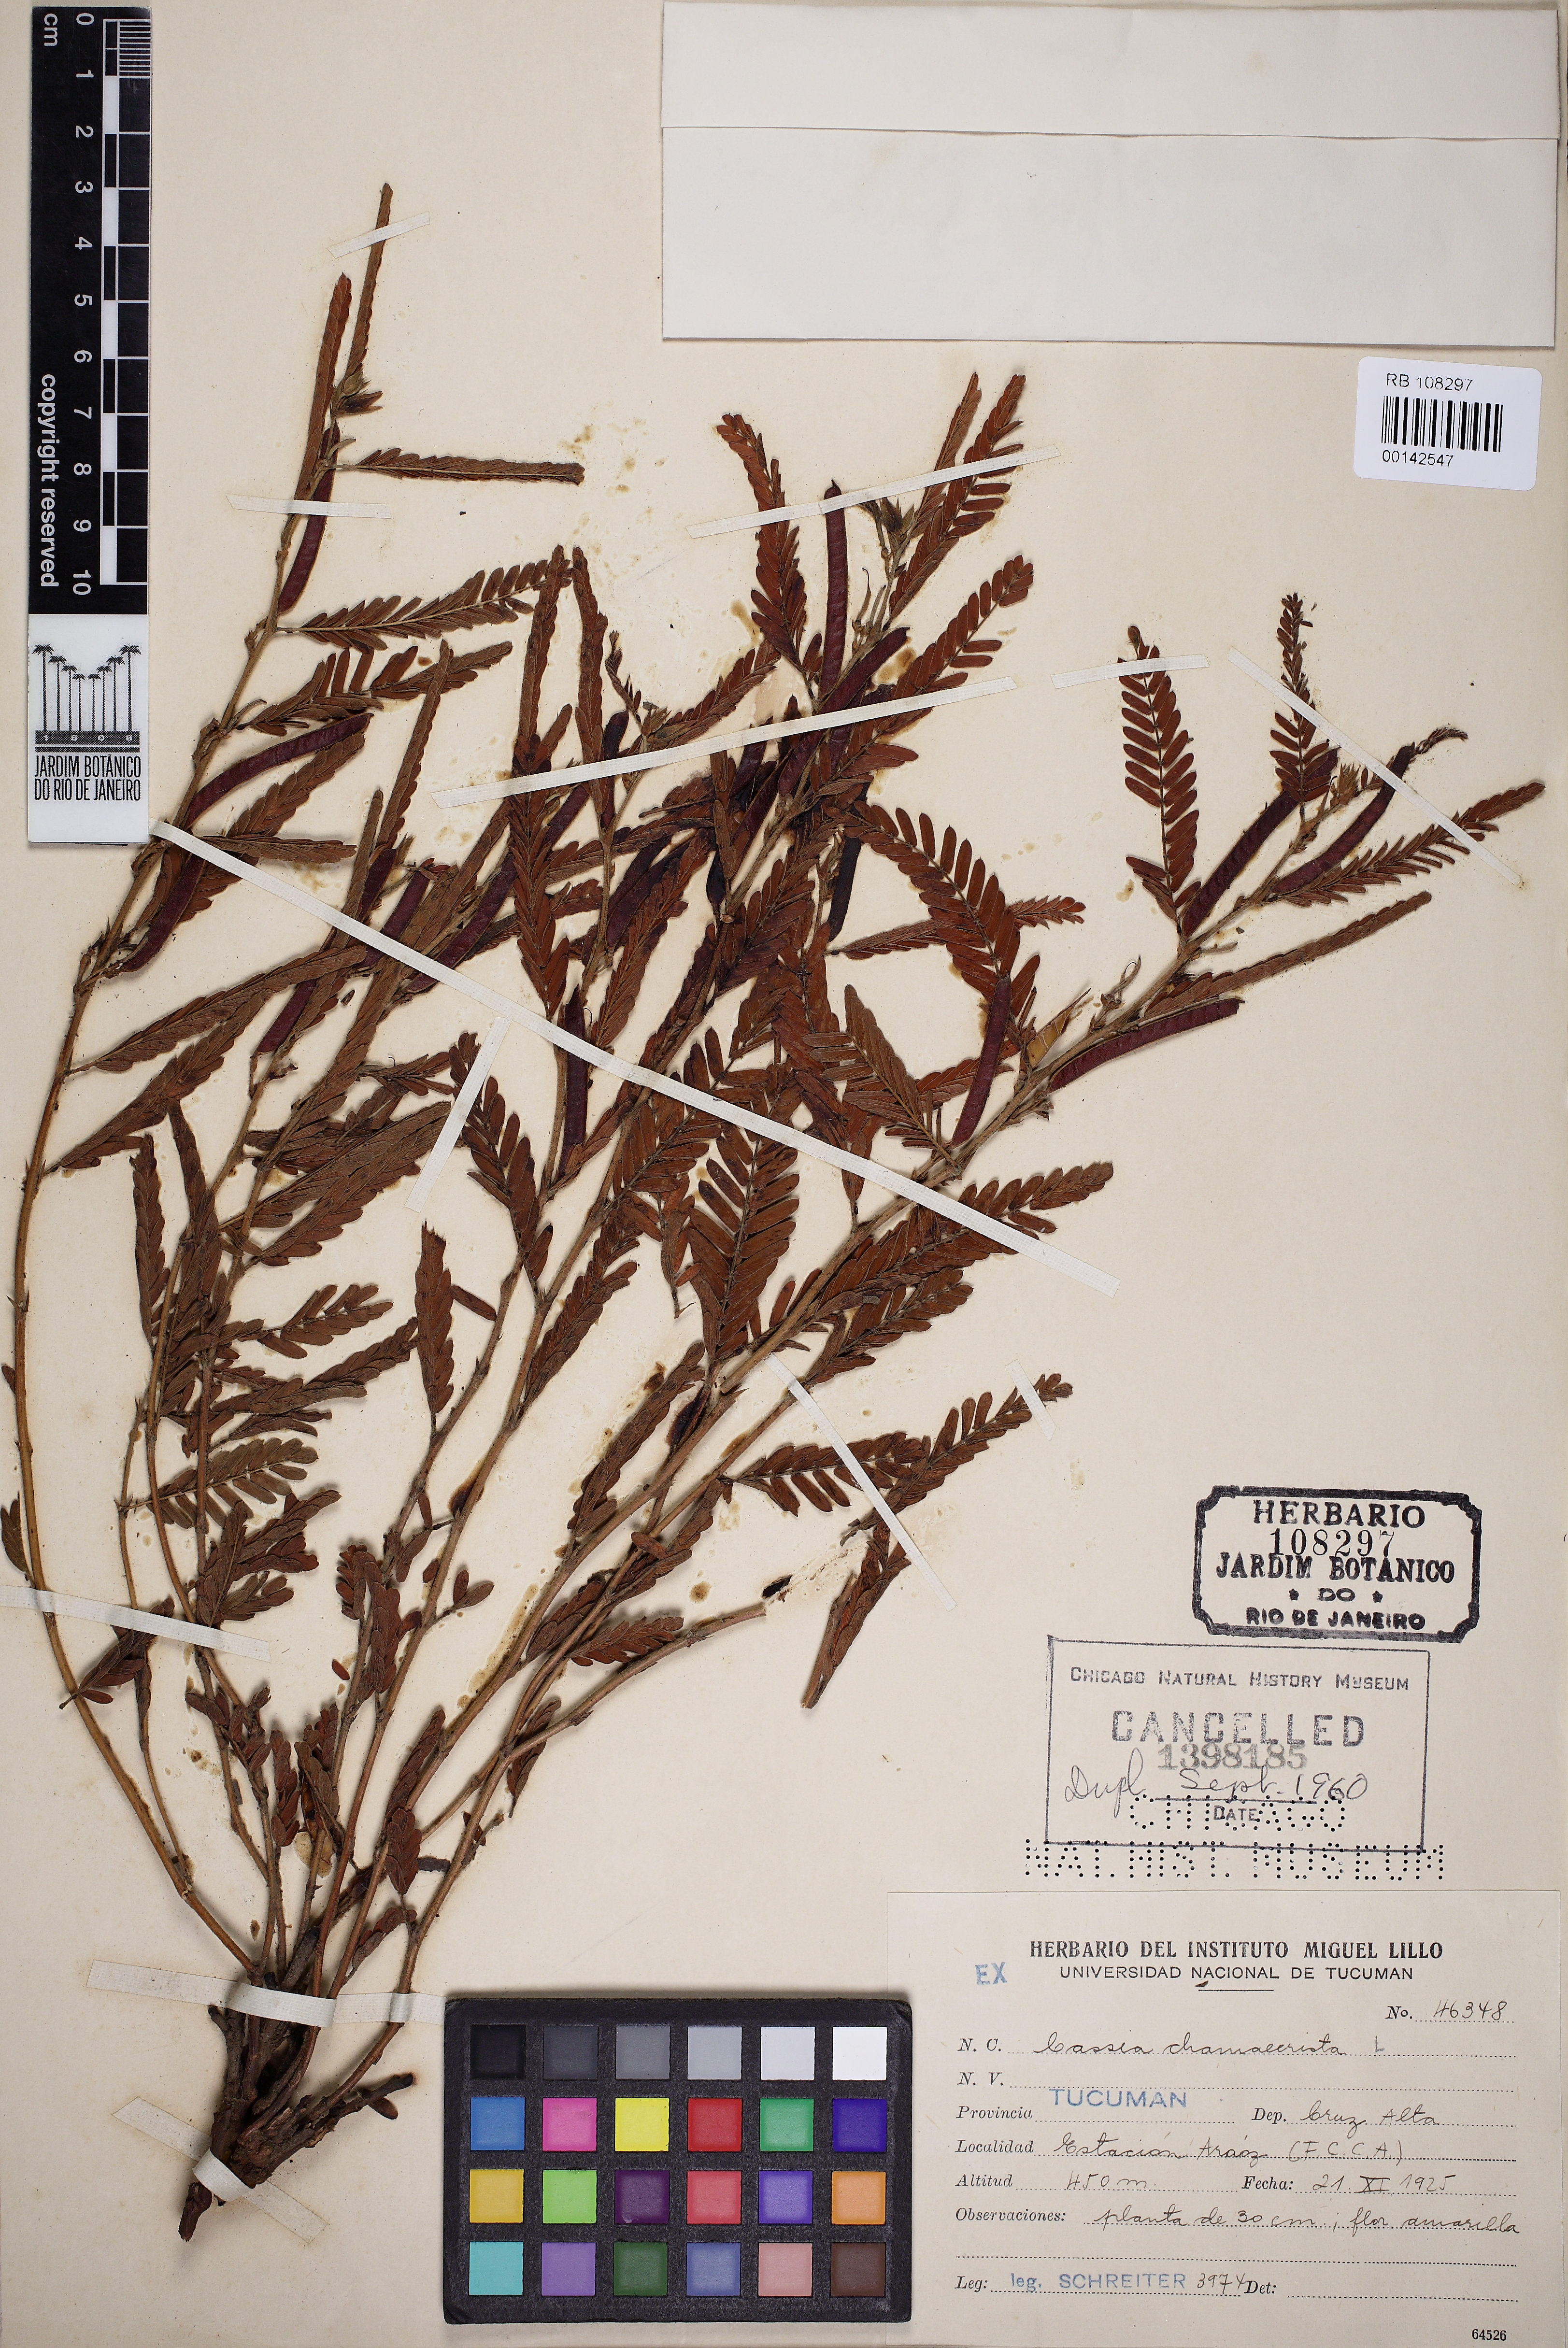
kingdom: Plantae
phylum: Tracheophyta
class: Magnoliopsida
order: Fabales
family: Fabaceae
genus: Chamaecrista
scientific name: Chamaecrista fasciculata
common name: Golden cassia
